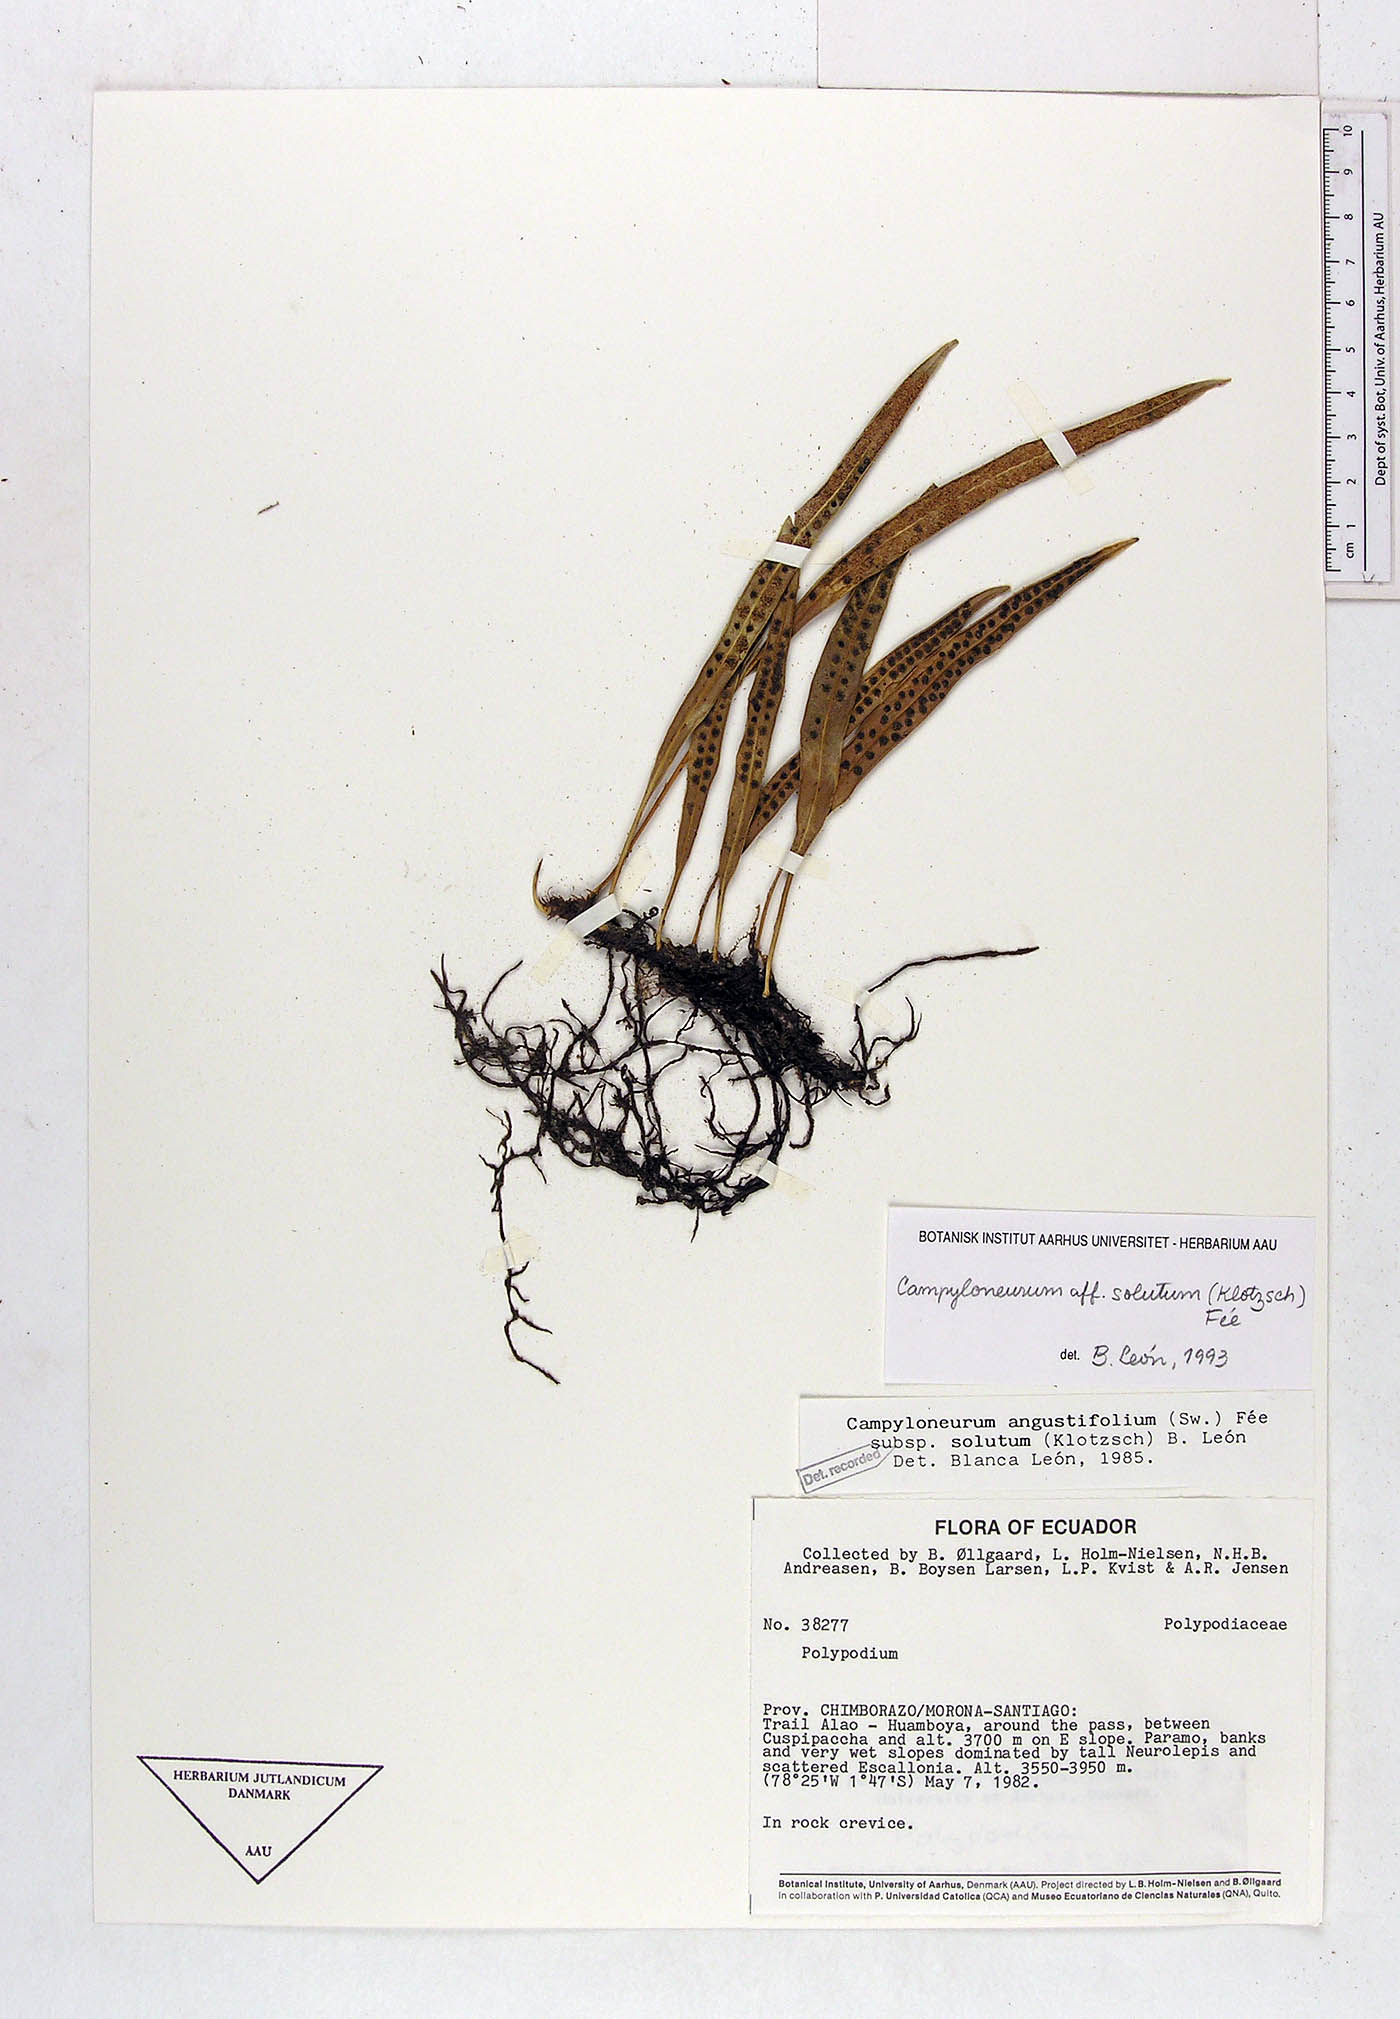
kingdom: Plantae
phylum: Tracheophyta
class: Polypodiopsida
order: Polypodiales
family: Polypodiaceae
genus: Campyloneurum
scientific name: Campyloneurum solutum
